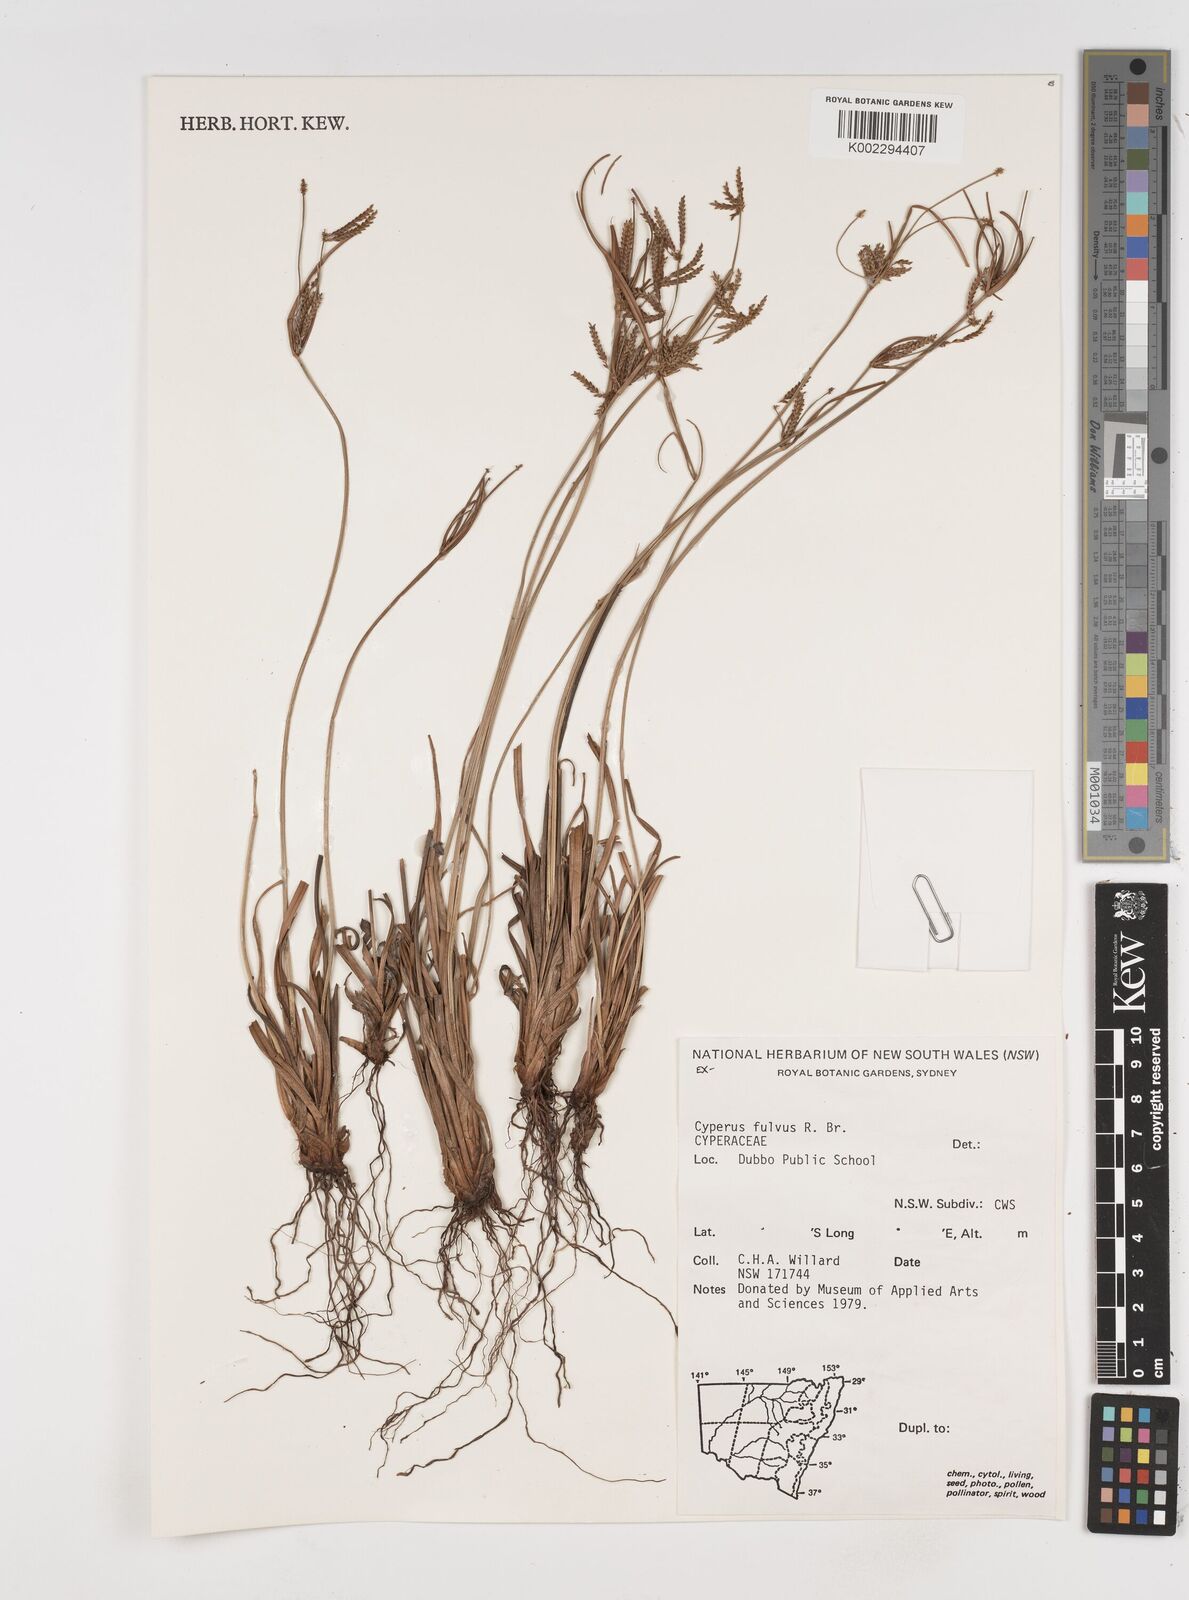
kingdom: Plantae
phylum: Tracheophyta
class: Liliopsida
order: Poales
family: Cyperaceae
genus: Cyperus
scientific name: Cyperus fulvus
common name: Sticky sedge
